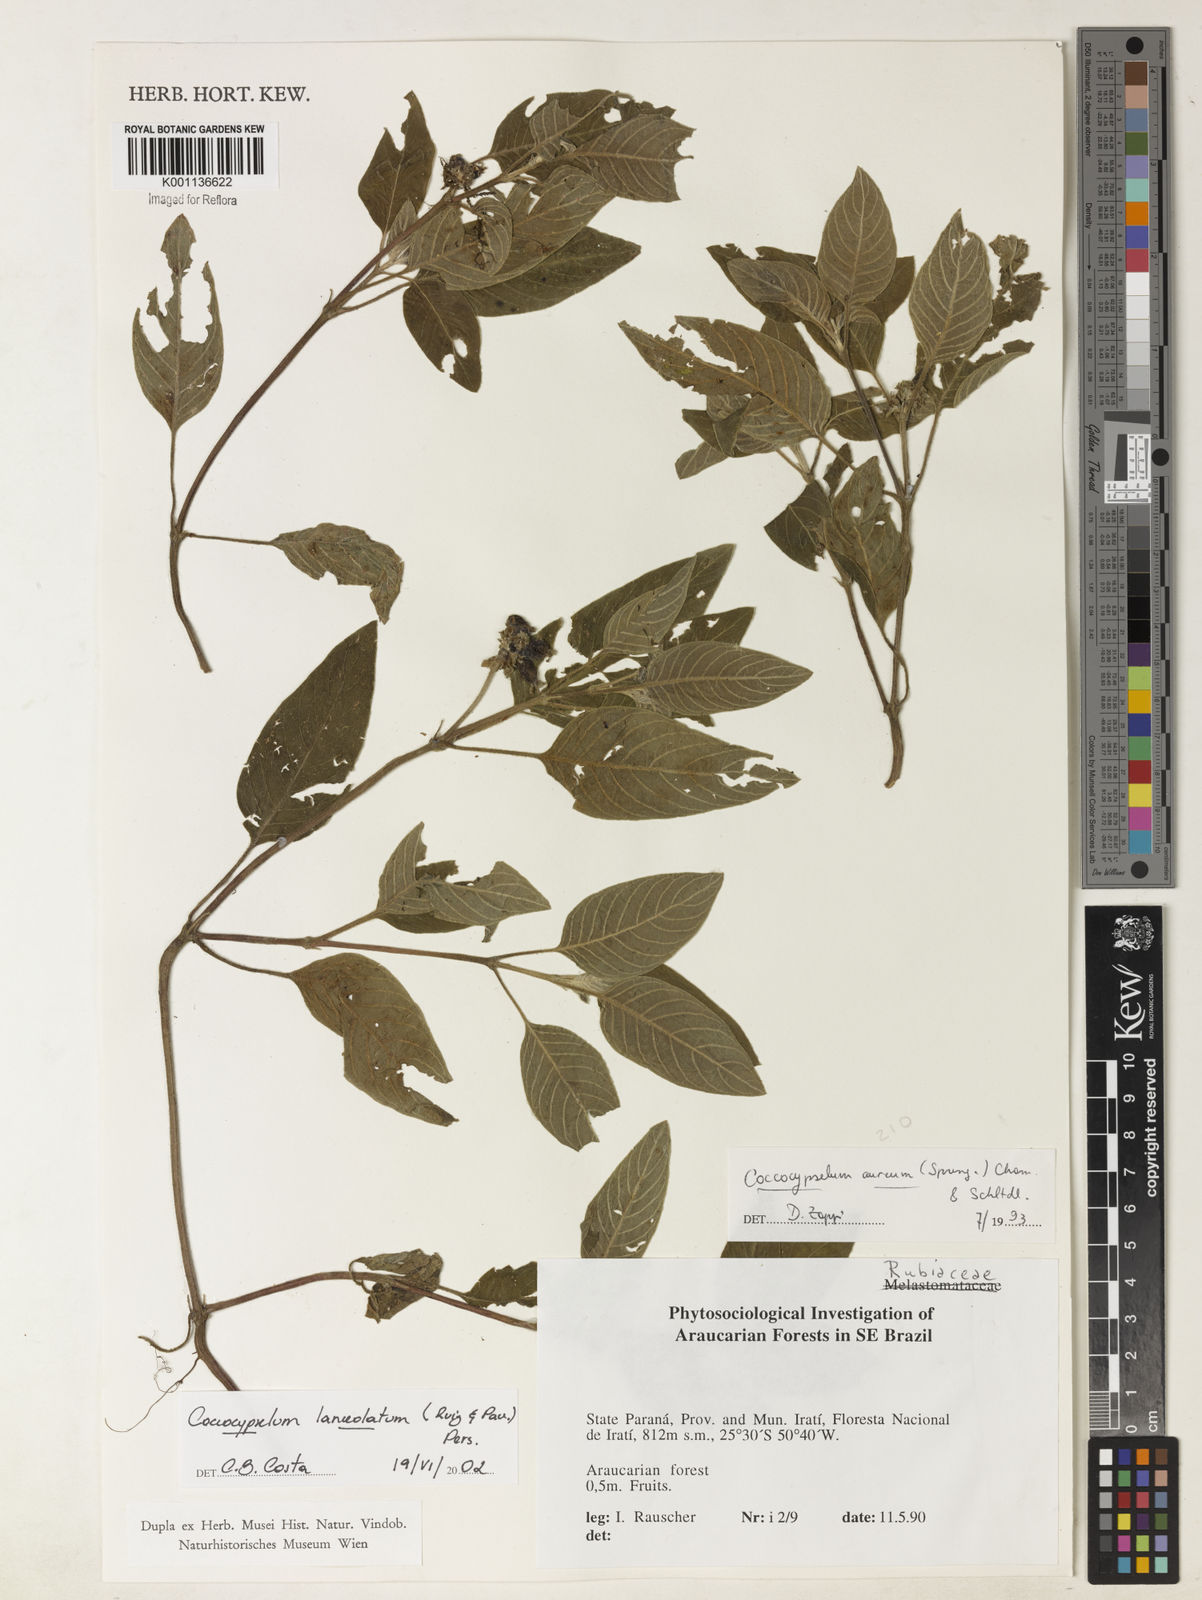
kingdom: Plantae
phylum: Tracheophyta
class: Magnoliopsida
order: Gentianales
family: Rubiaceae
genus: Coccocypselum
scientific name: Coccocypselum lanceolatum
